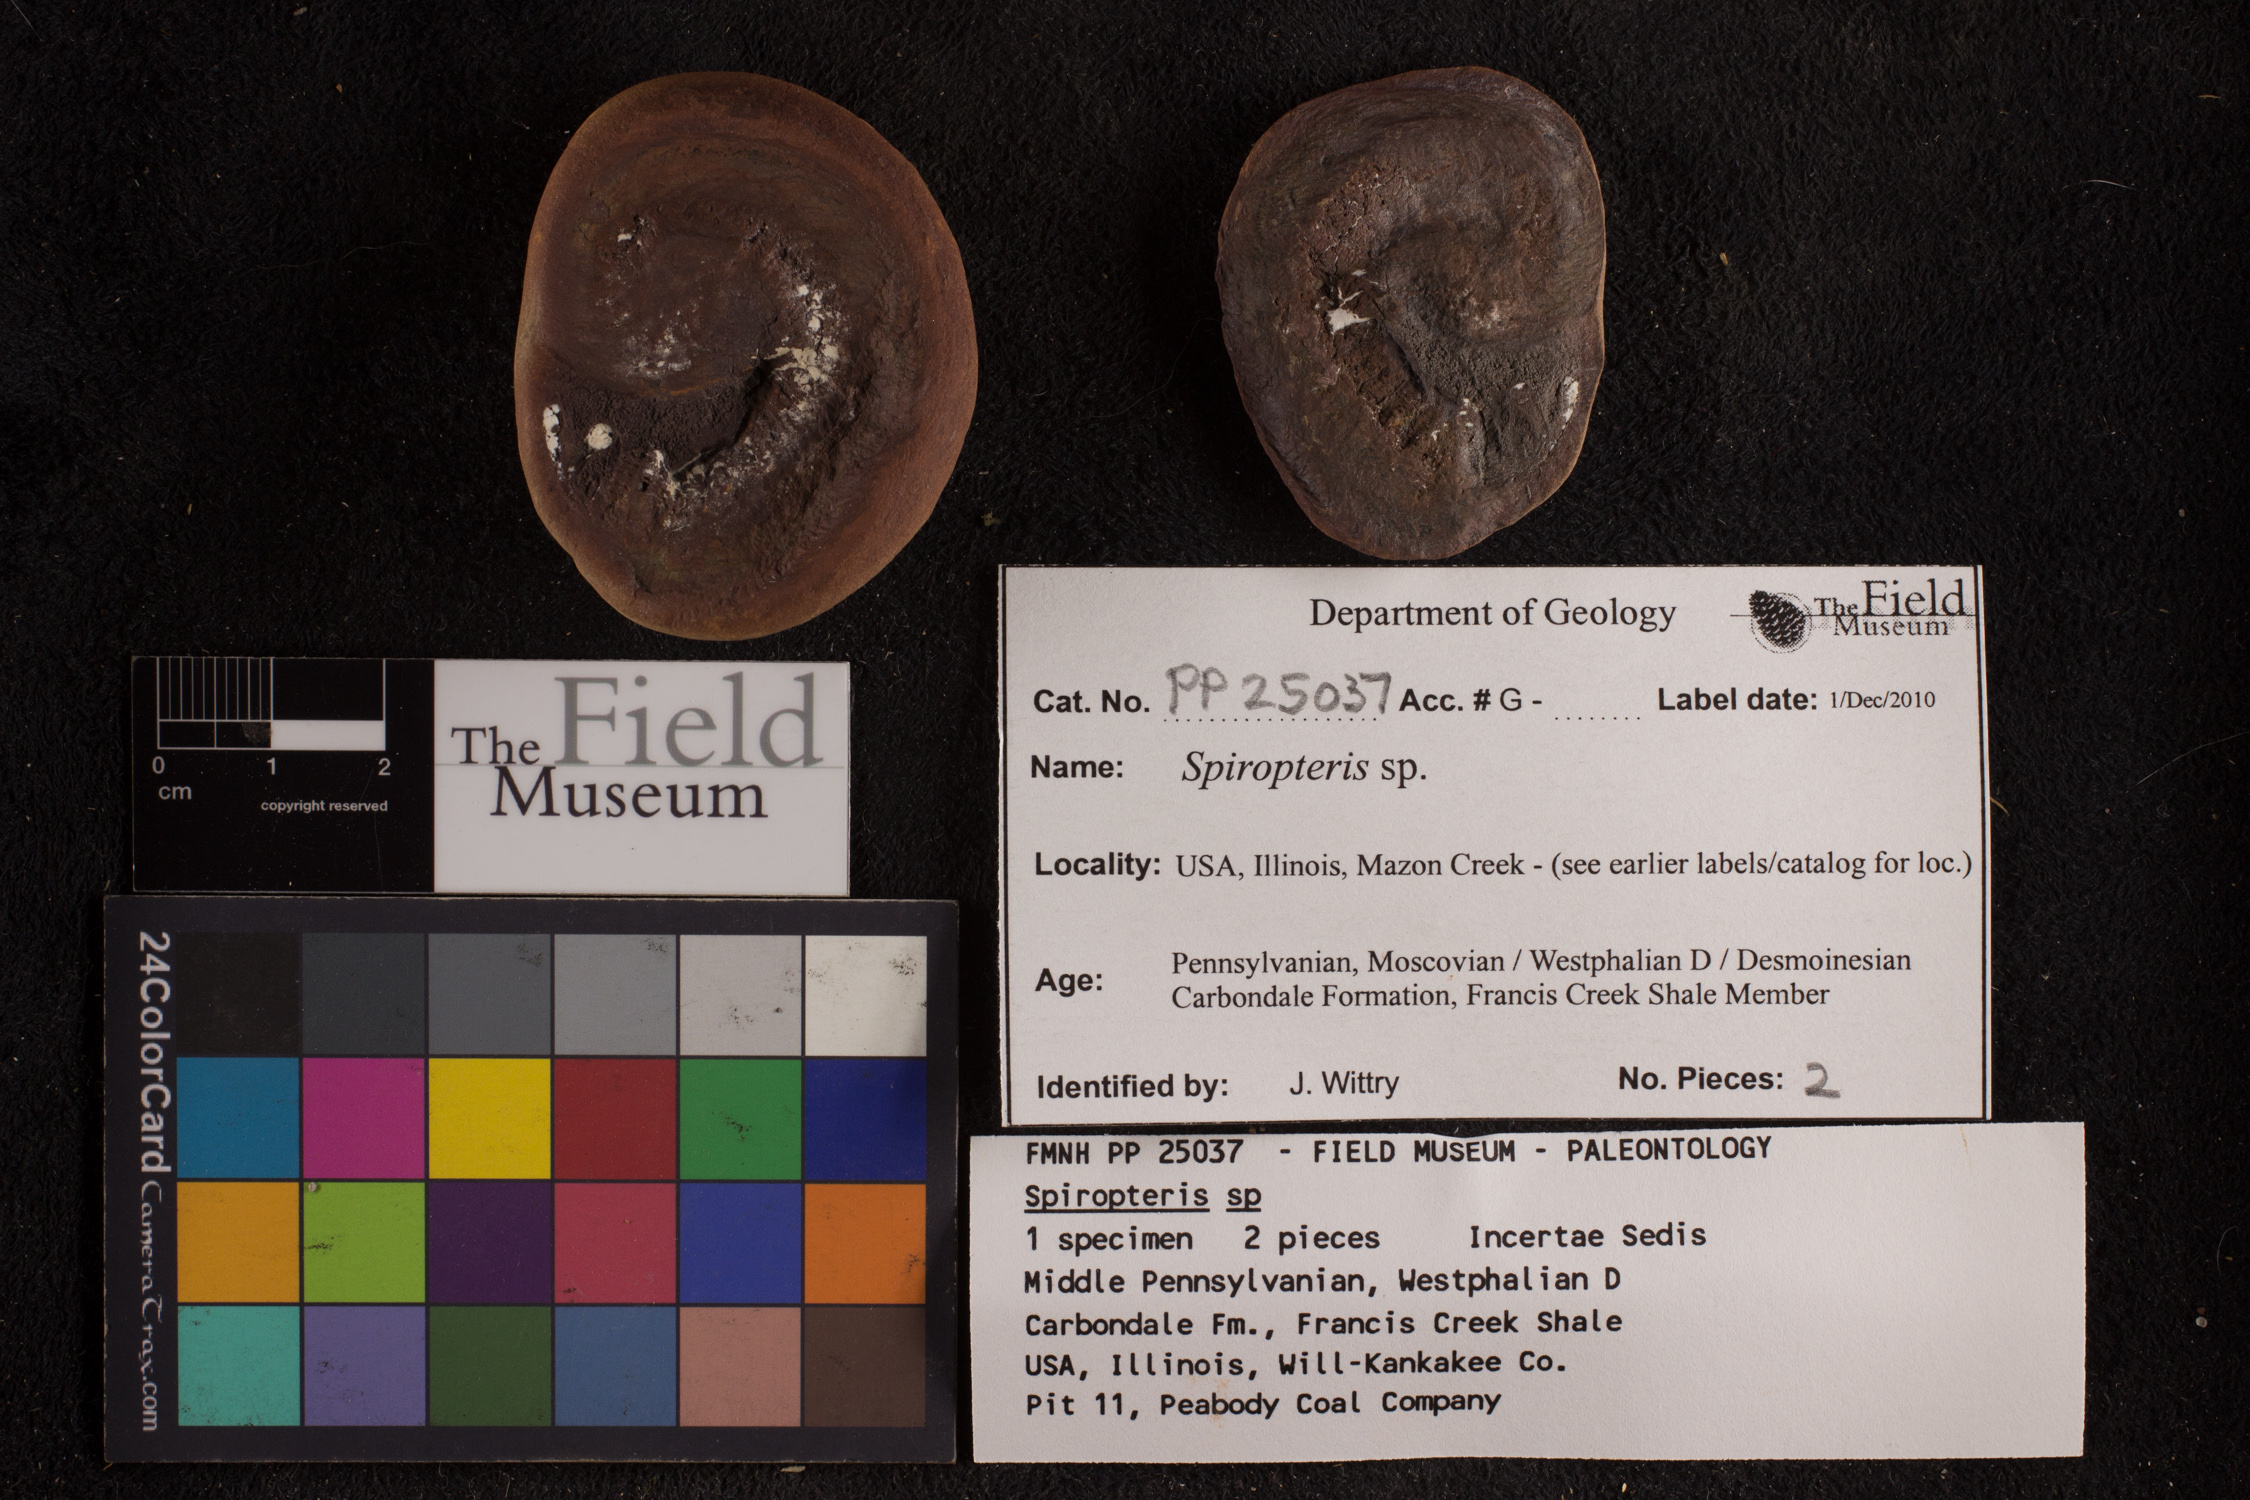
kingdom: Plantae
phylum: Tracheophyta
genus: Spiropteris
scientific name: Spiropteris
